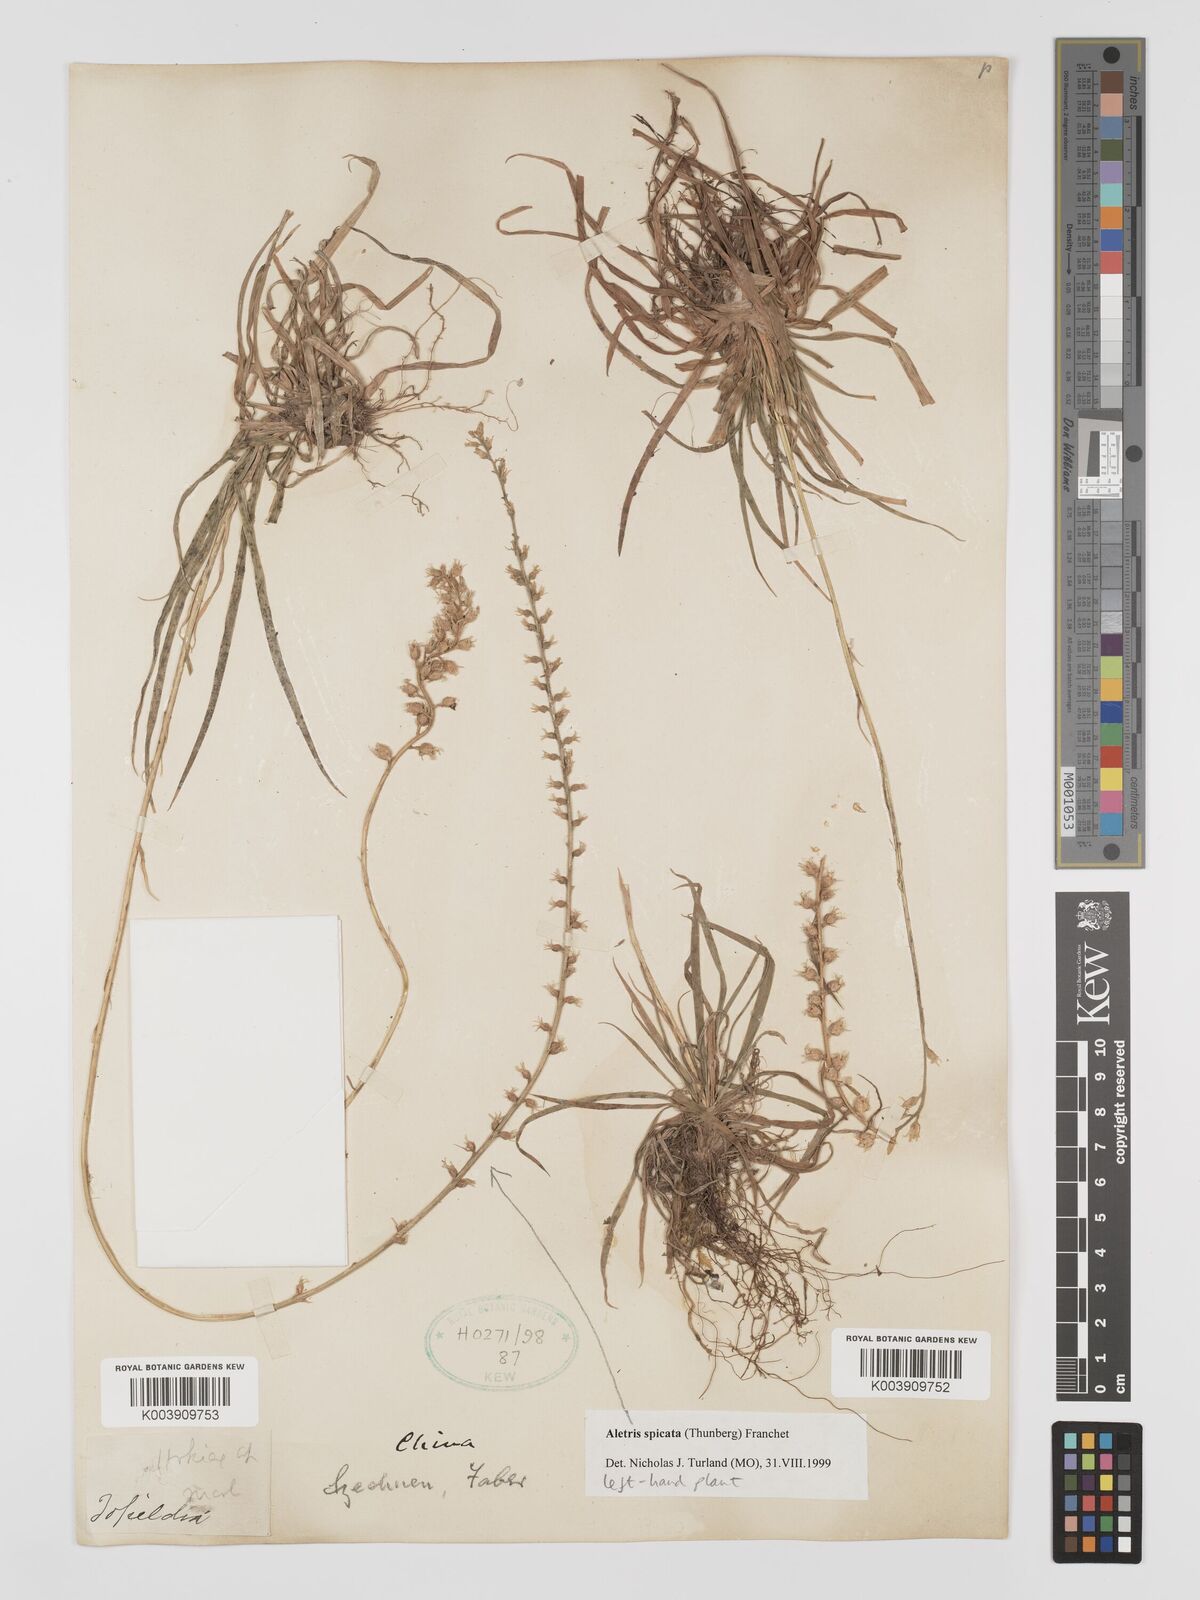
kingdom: Plantae
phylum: Tracheophyta
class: Liliopsida
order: Dioscoreales
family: Nartheciaceae
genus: Aletris
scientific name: Aletris spicata
